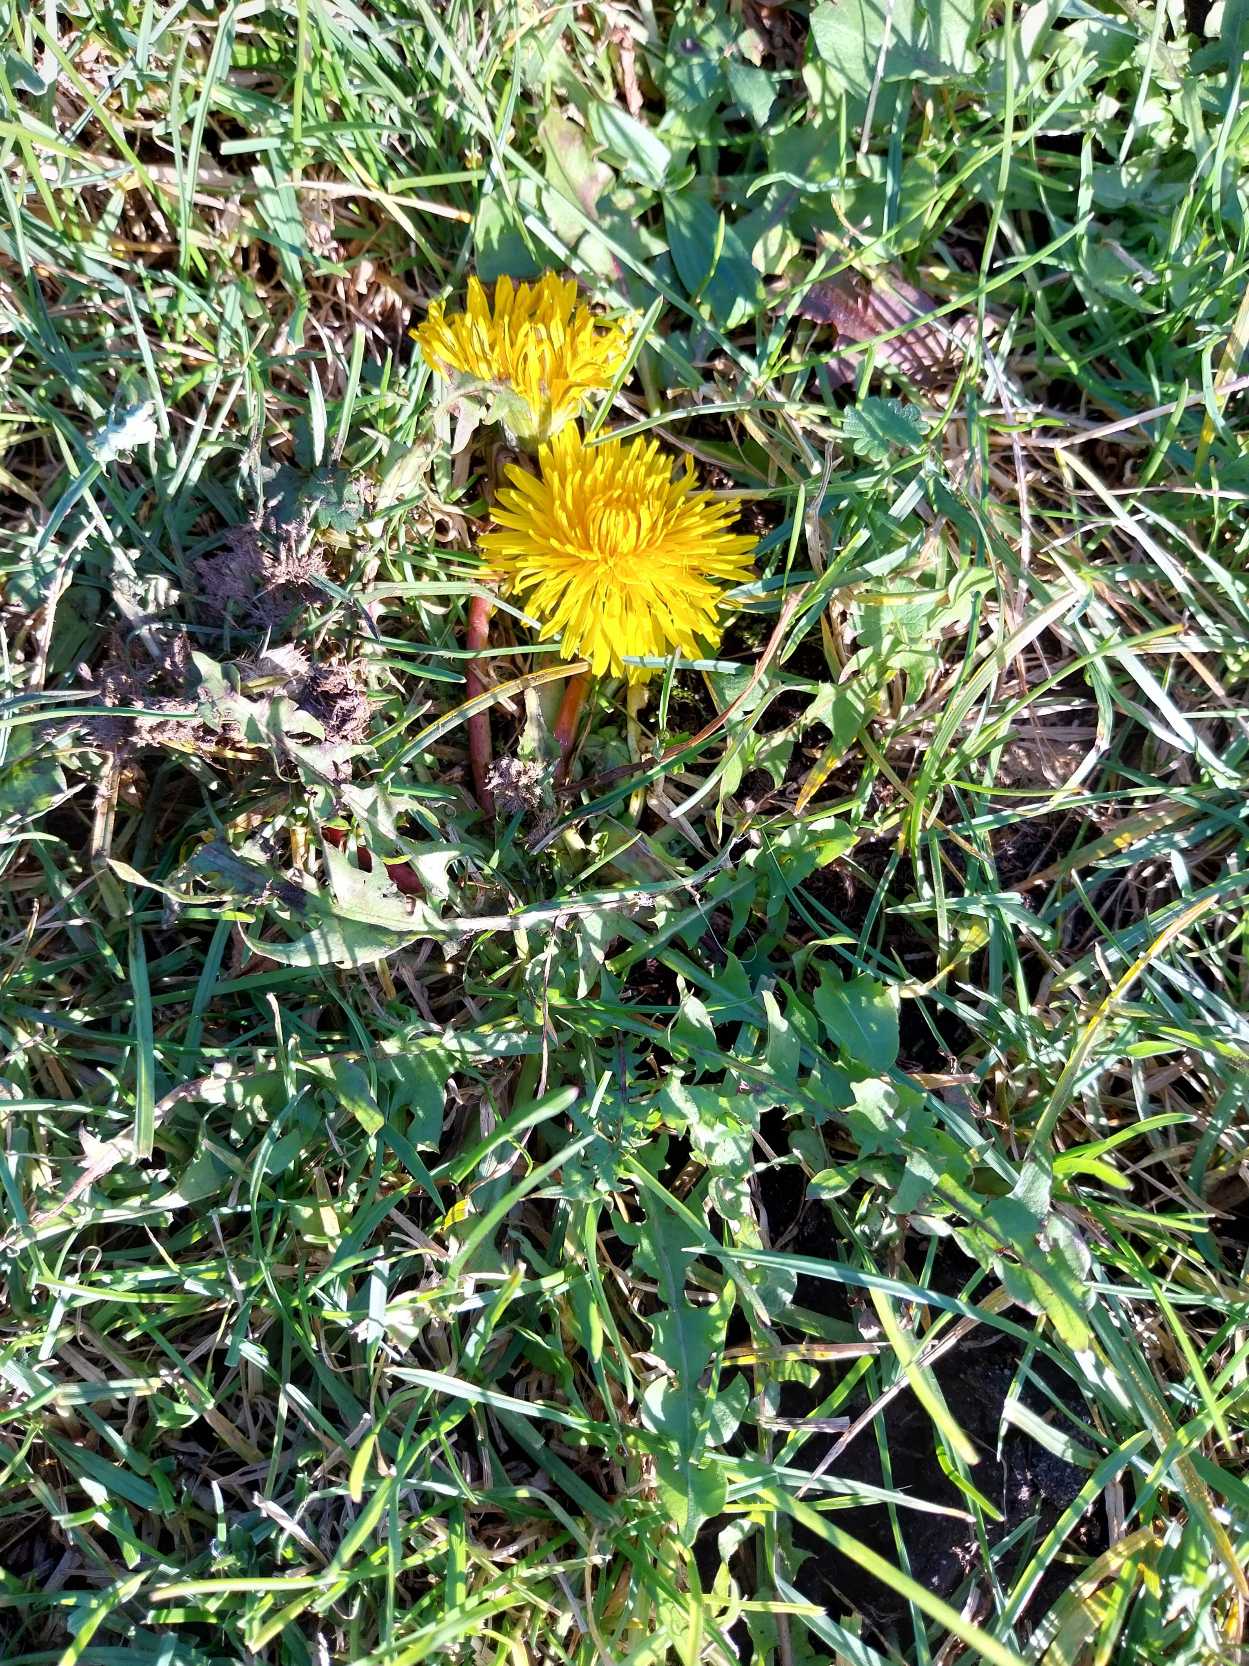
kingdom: Plantae
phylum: Tracheophyta
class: Magnoliopsida
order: Asterales
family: Asteraceae
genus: Taraxacum
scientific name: Taraxacum
